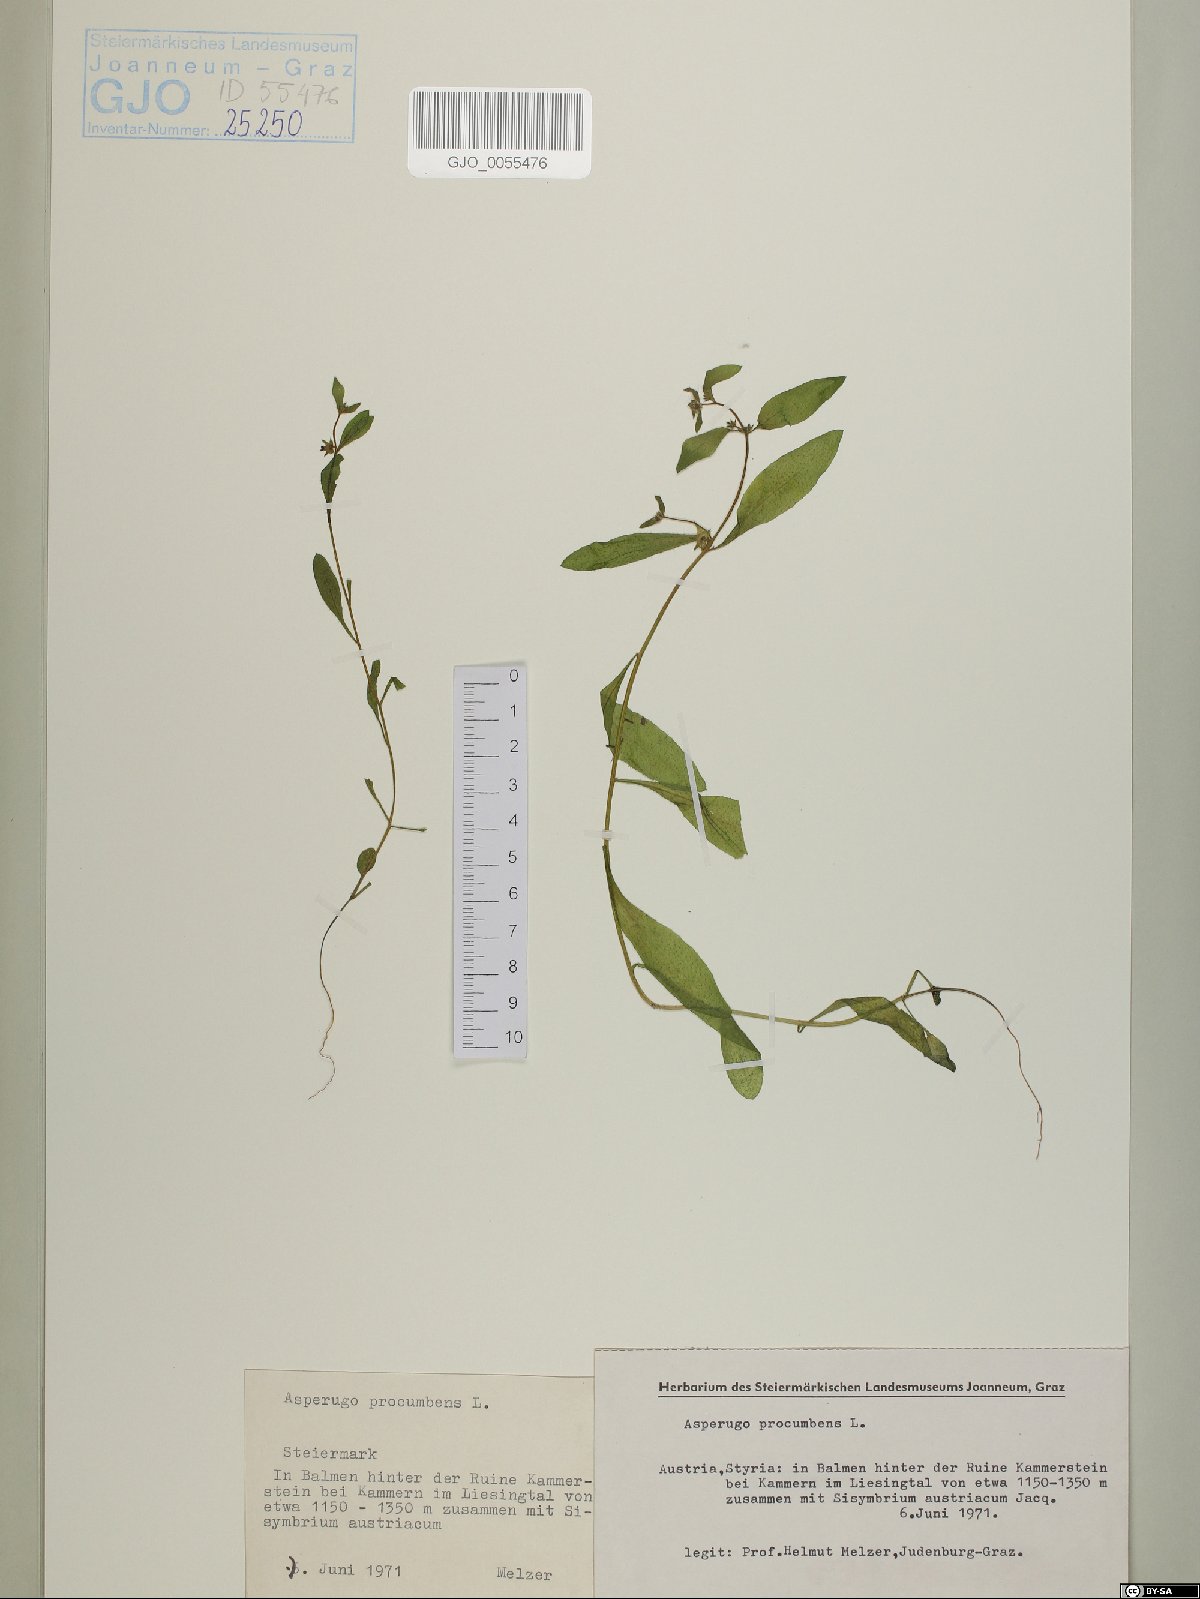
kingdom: Plantae
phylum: Tracheophyta
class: Magnoliopsida
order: Boraginales
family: Boraginaceae
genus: Asperugo
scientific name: Asperugo procumbens
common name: Madwort
